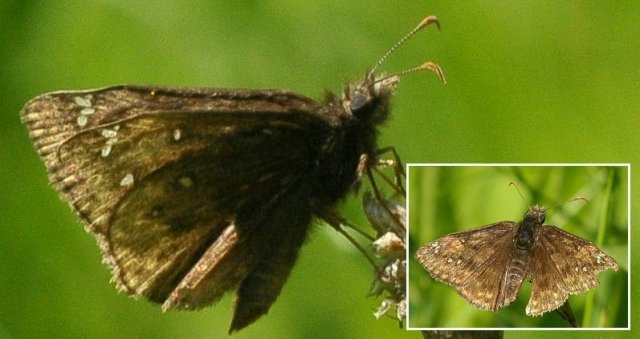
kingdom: Animalia
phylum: Arthropoda
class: Insecta
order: Lepidoptera
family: Hesperiidae
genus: Gesta
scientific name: Gesta
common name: Juvenal's Duskywing
